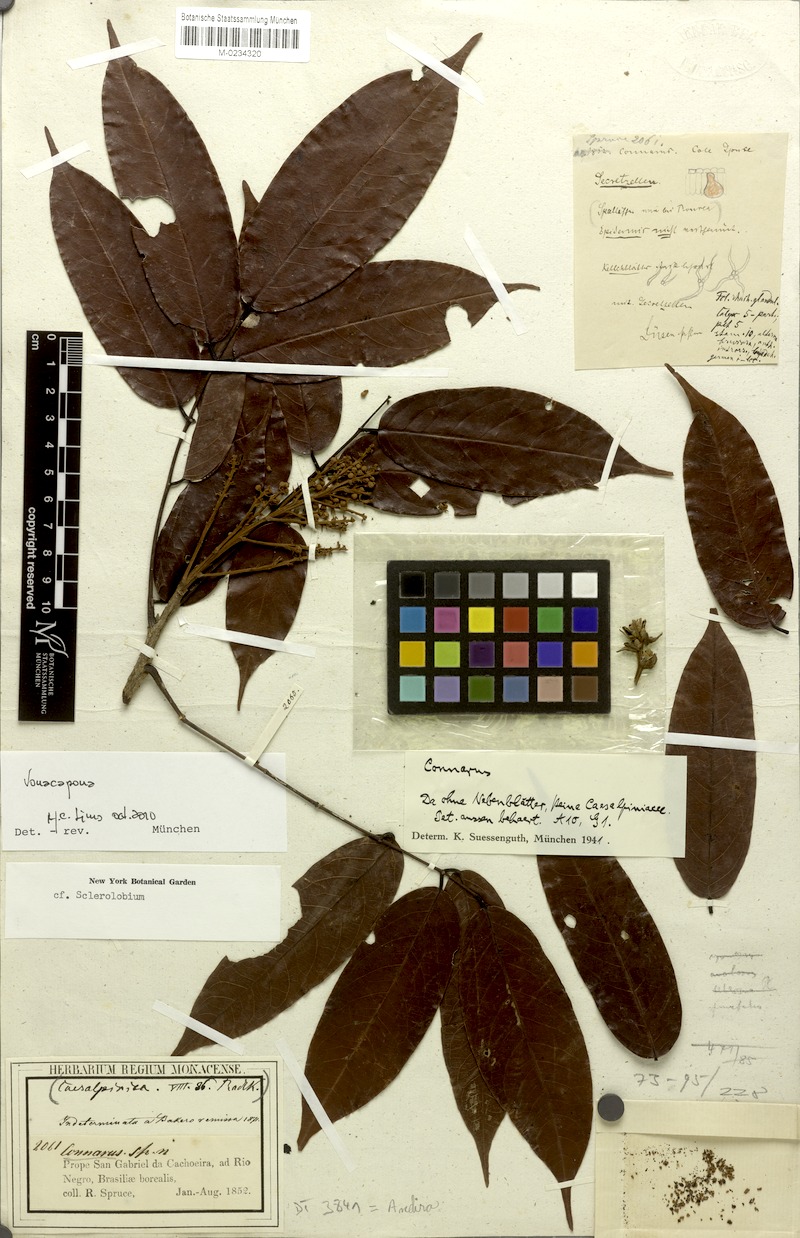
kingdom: Plantae
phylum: Tracheophyta
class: Magnoliopsida
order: Fabales
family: Fabaceae
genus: Vouacapoua
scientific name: Vouacapoua
